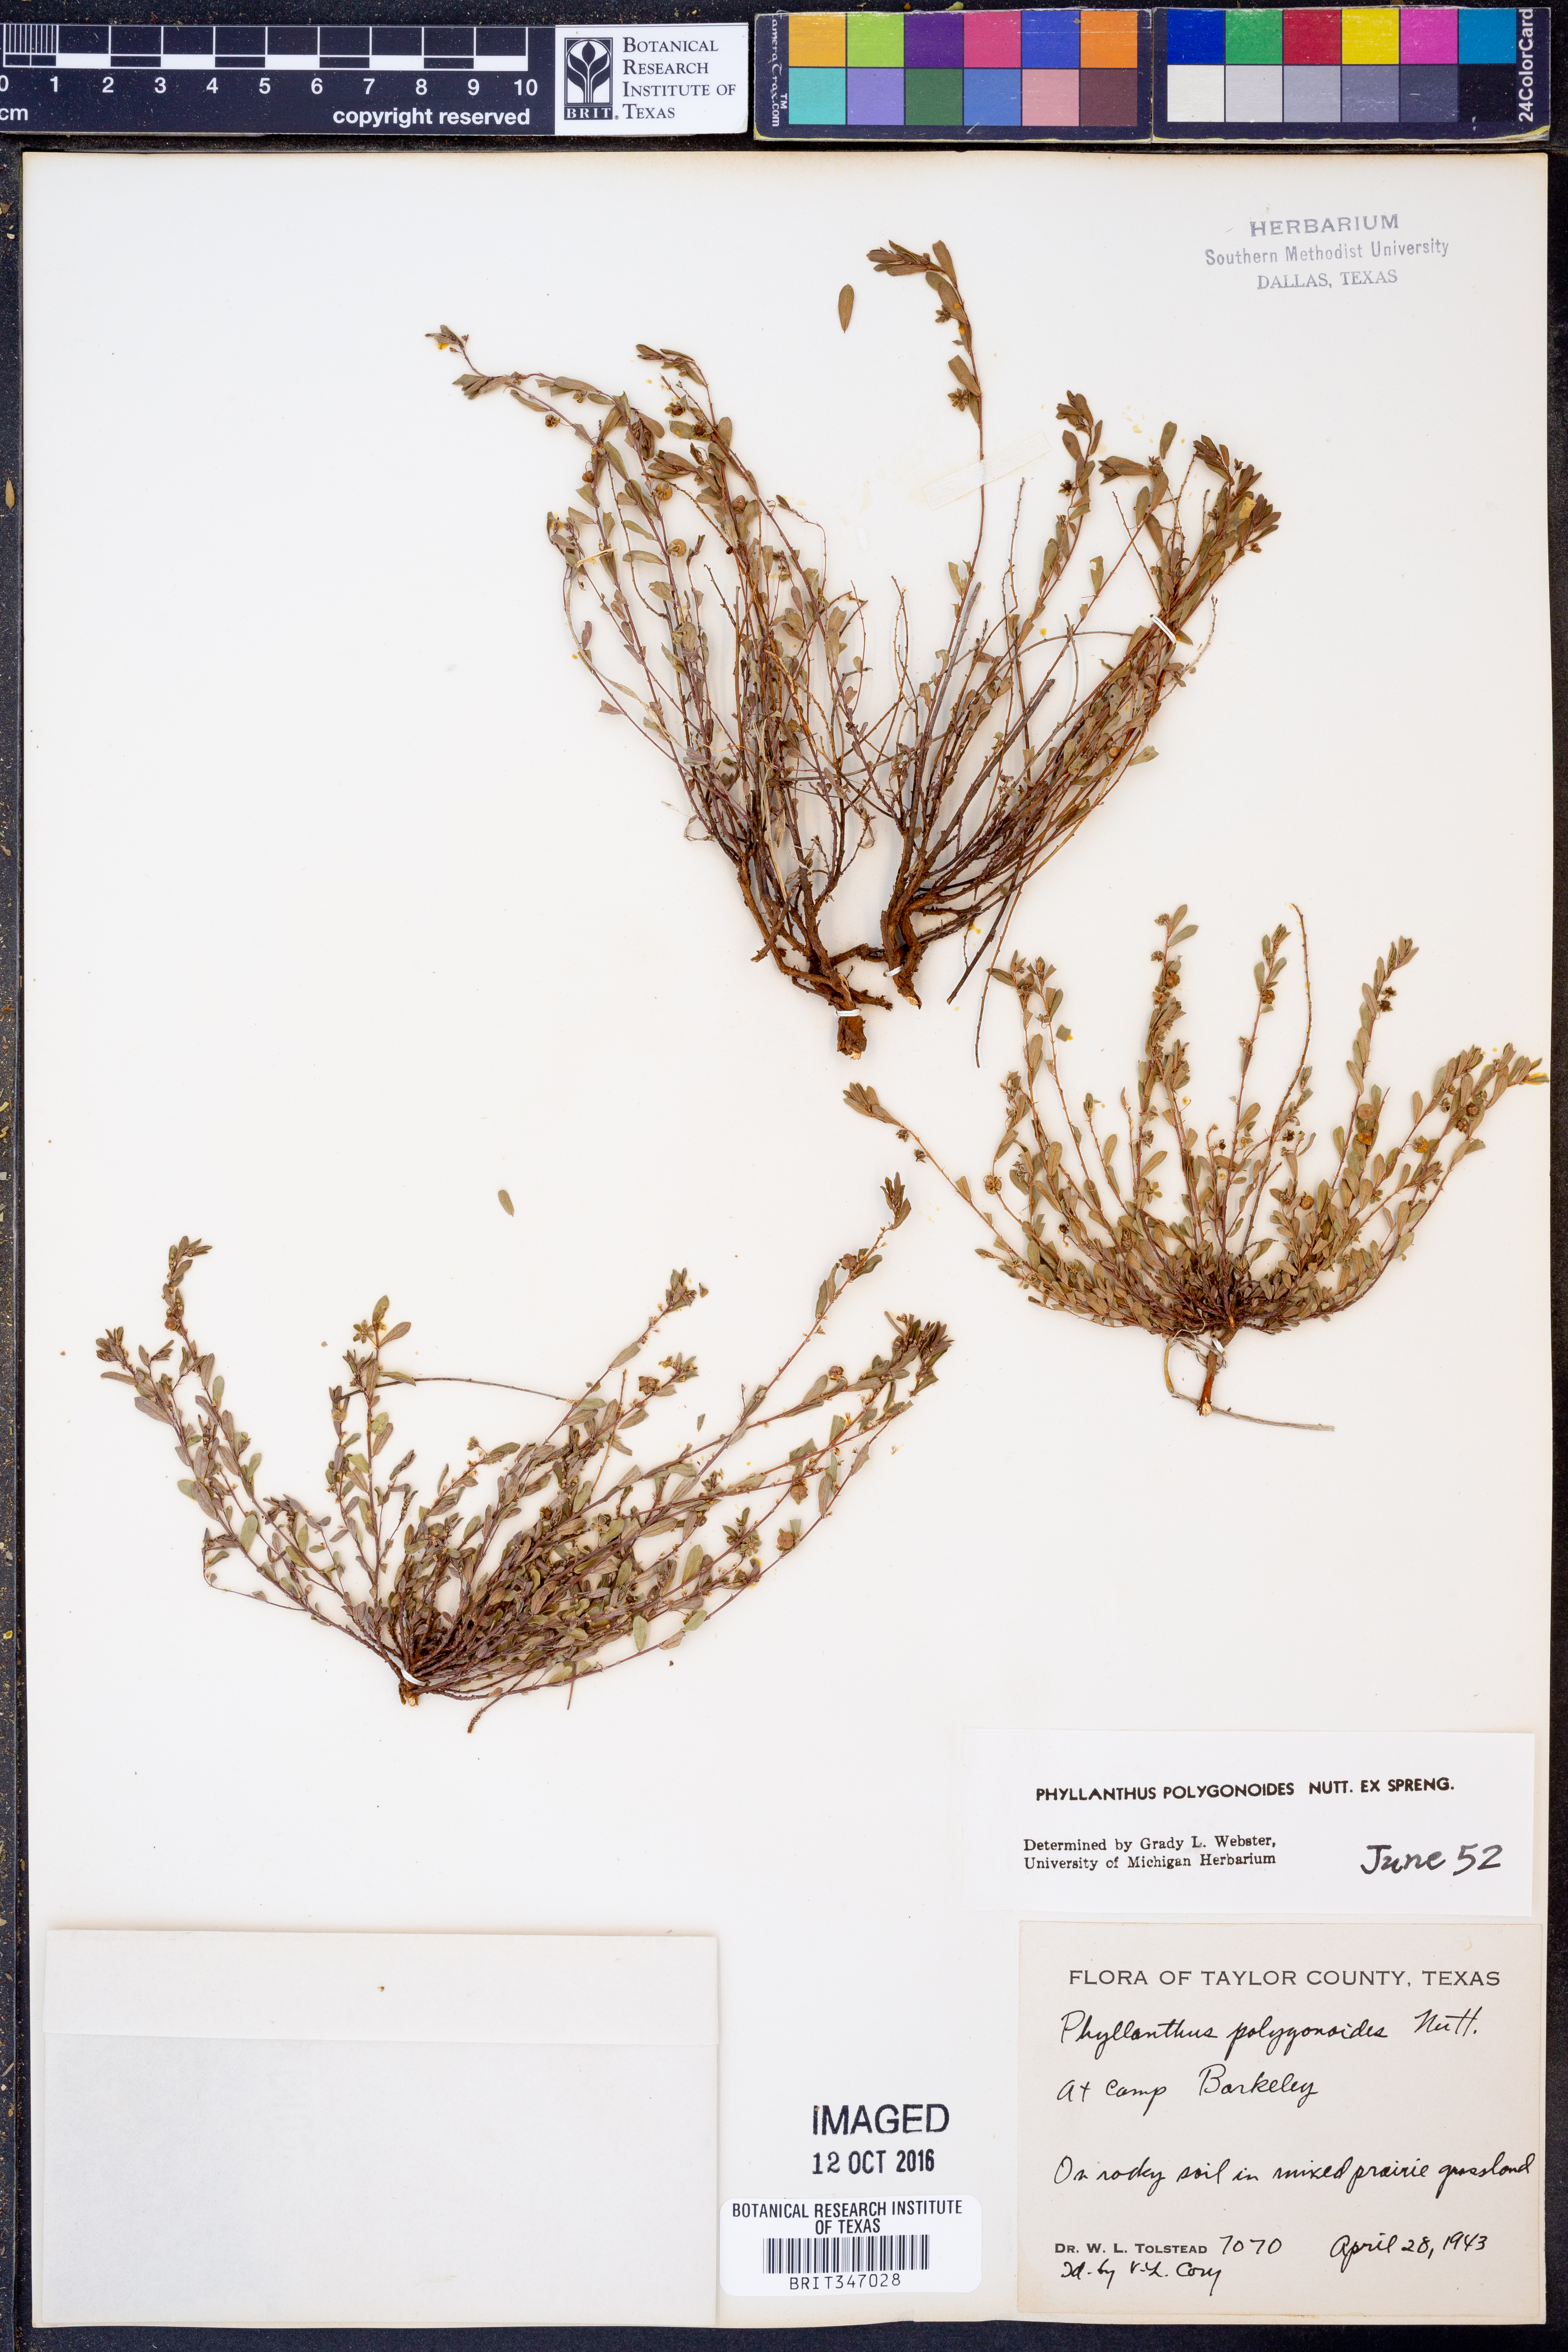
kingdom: Plantae
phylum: Tracheophyta
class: Magnoliopsida
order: Malpighiales
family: Phyllanthaceae
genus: Phyllanthus
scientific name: Phyllanthus polygonoides
